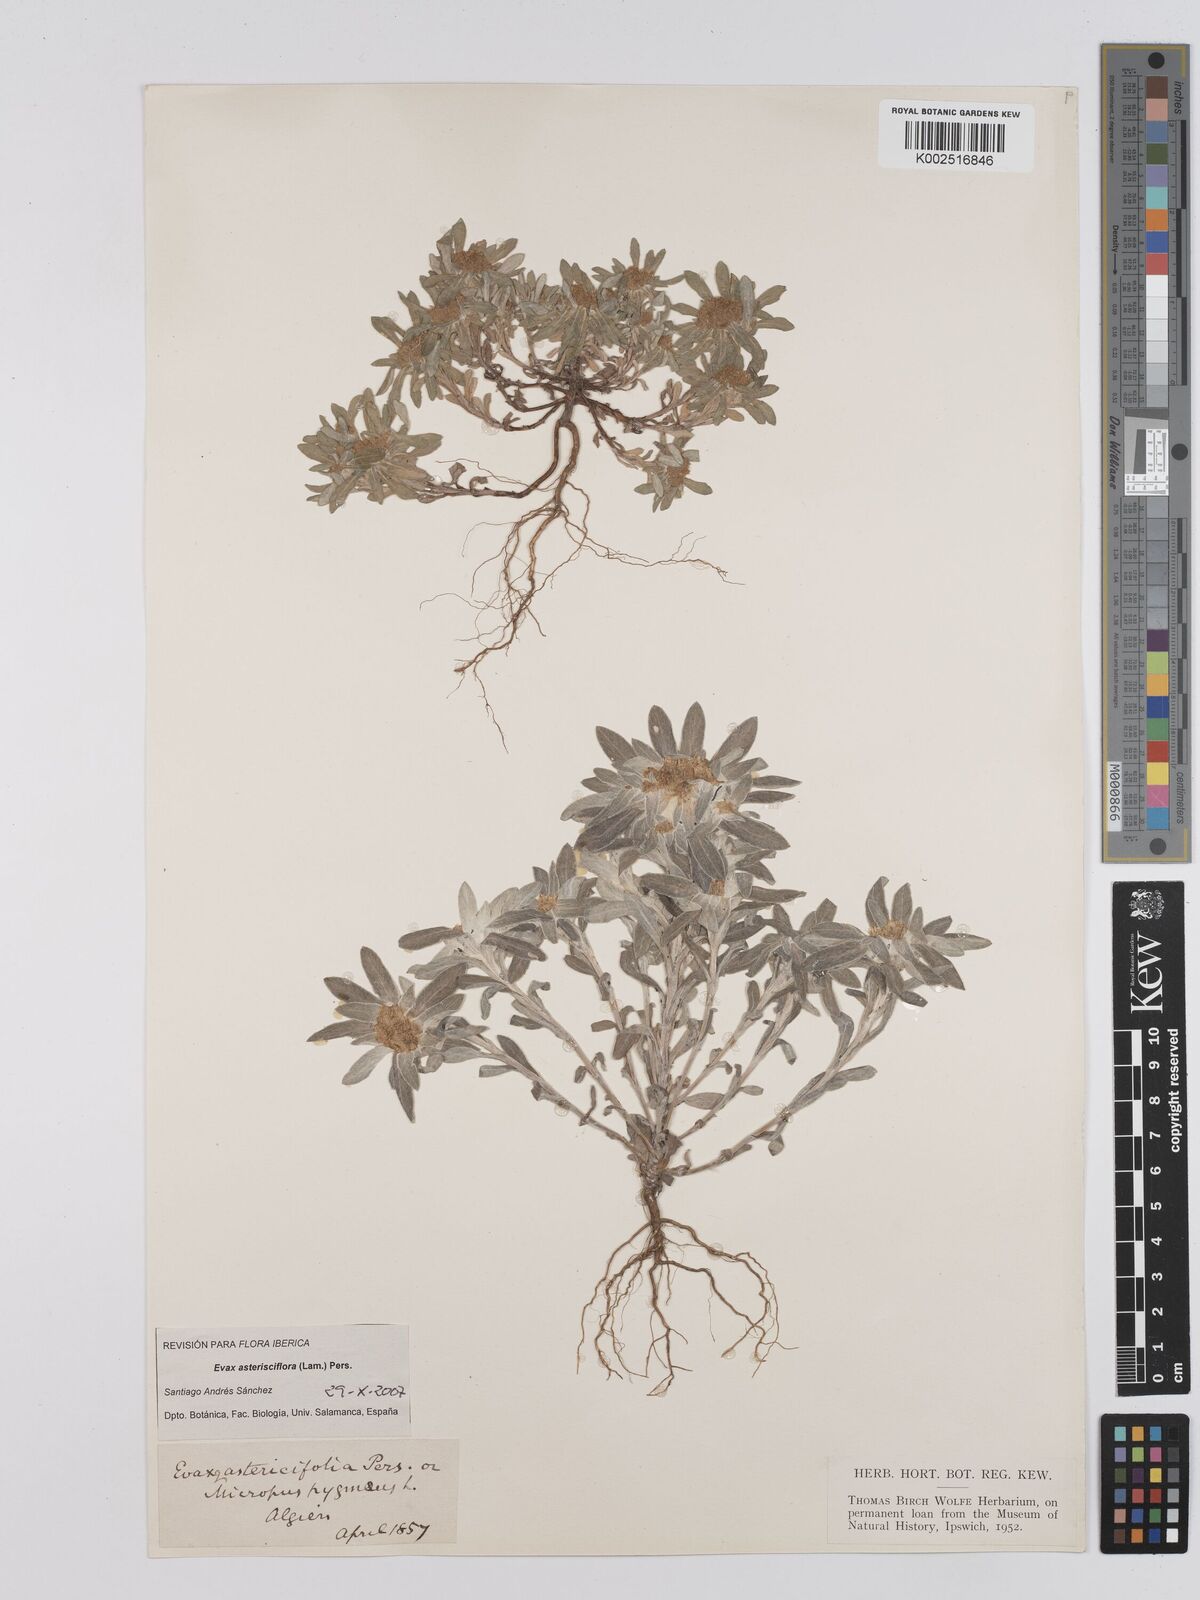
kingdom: Plantae
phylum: Tracheophyta
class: Magnoliopsida
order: Asterales
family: Asteraceae
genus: Filago
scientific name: Filago pygmaea
